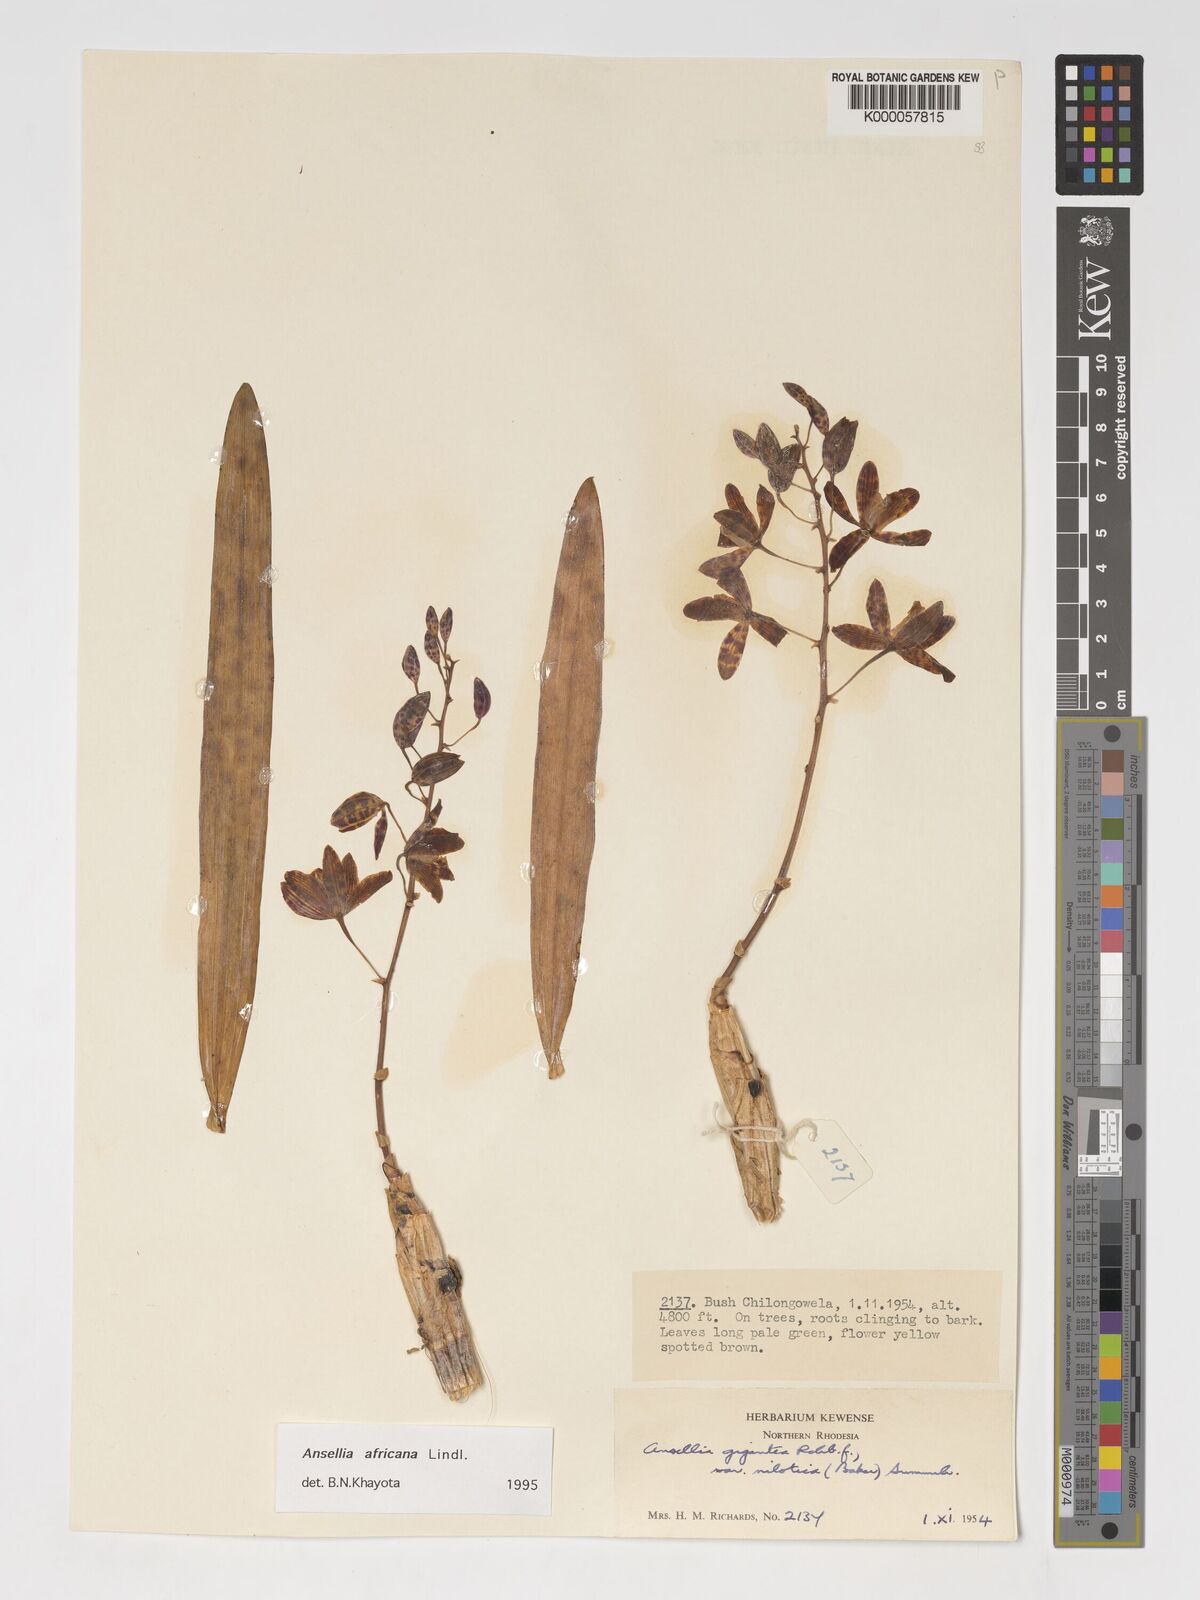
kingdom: Plantae
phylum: Tracheophyta
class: Liliopsida
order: Asparagales
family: Orchidaceae
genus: Ansellia
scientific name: Ansellia africana
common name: African ansellia
